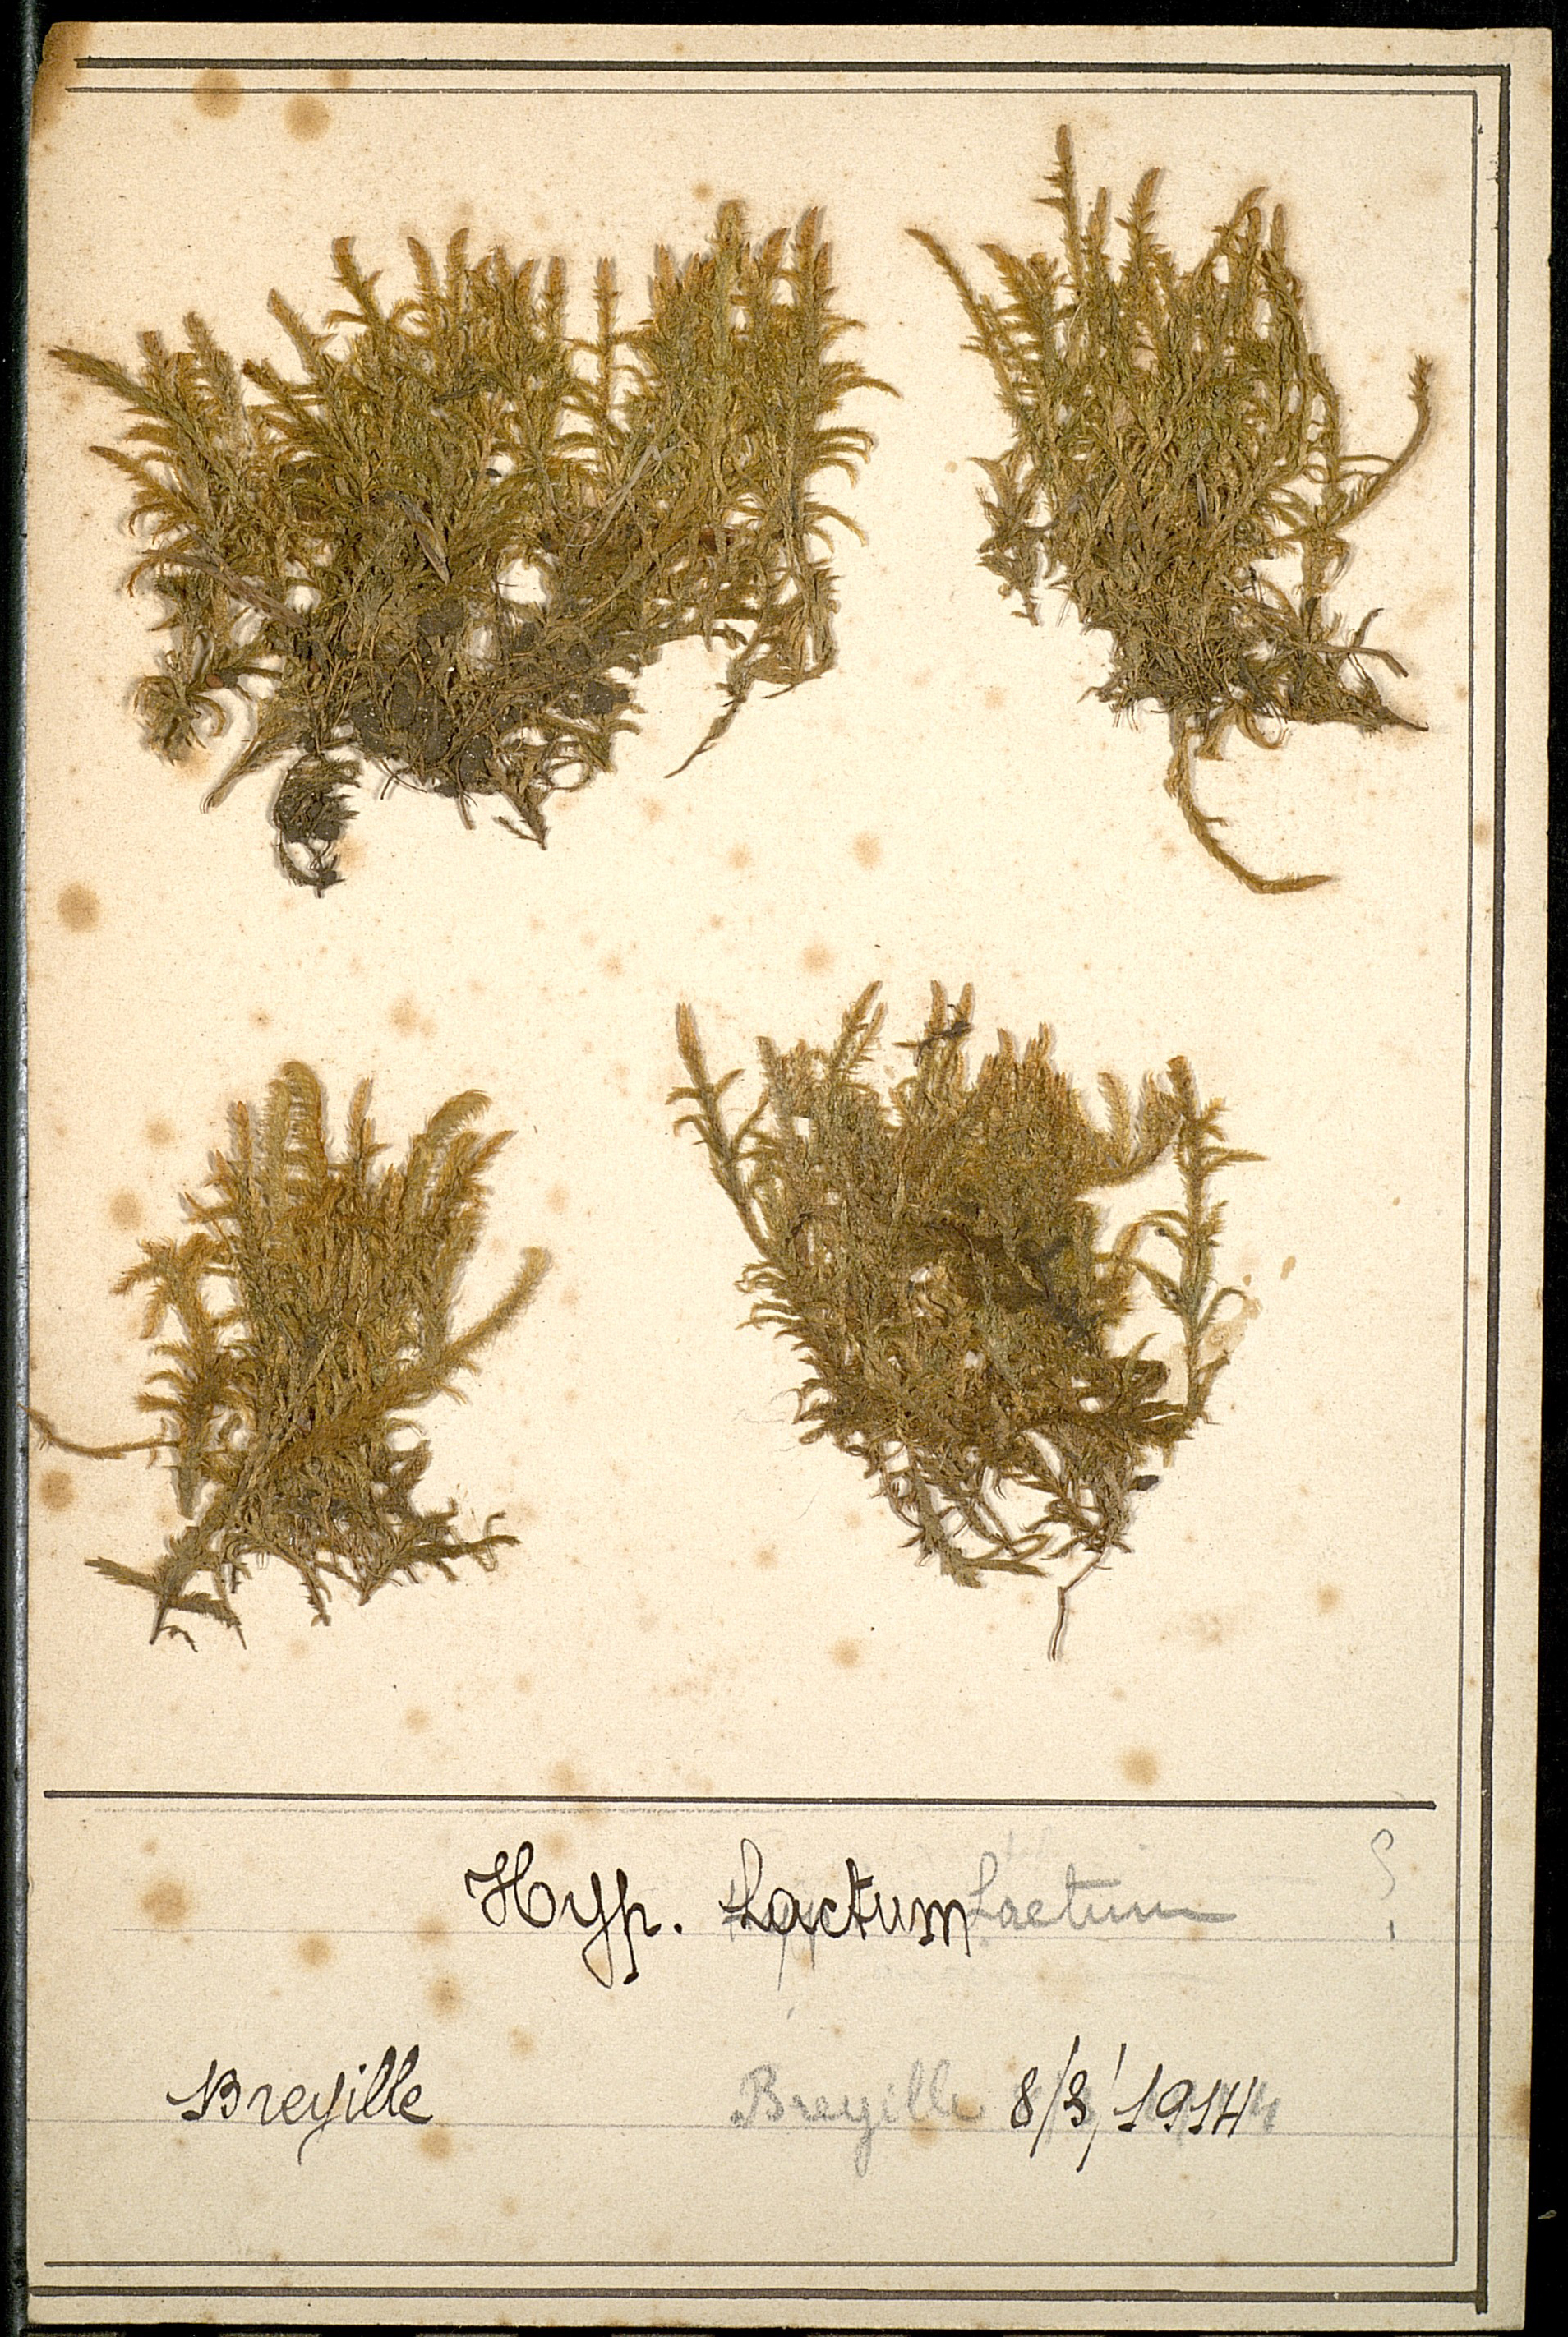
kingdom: Plantae
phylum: Bryophyta
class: Bryopsida
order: Hypnales
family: Brachytheciaceae
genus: Brachythecium
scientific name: Brachythecium laetum
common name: Bright ragged moss
